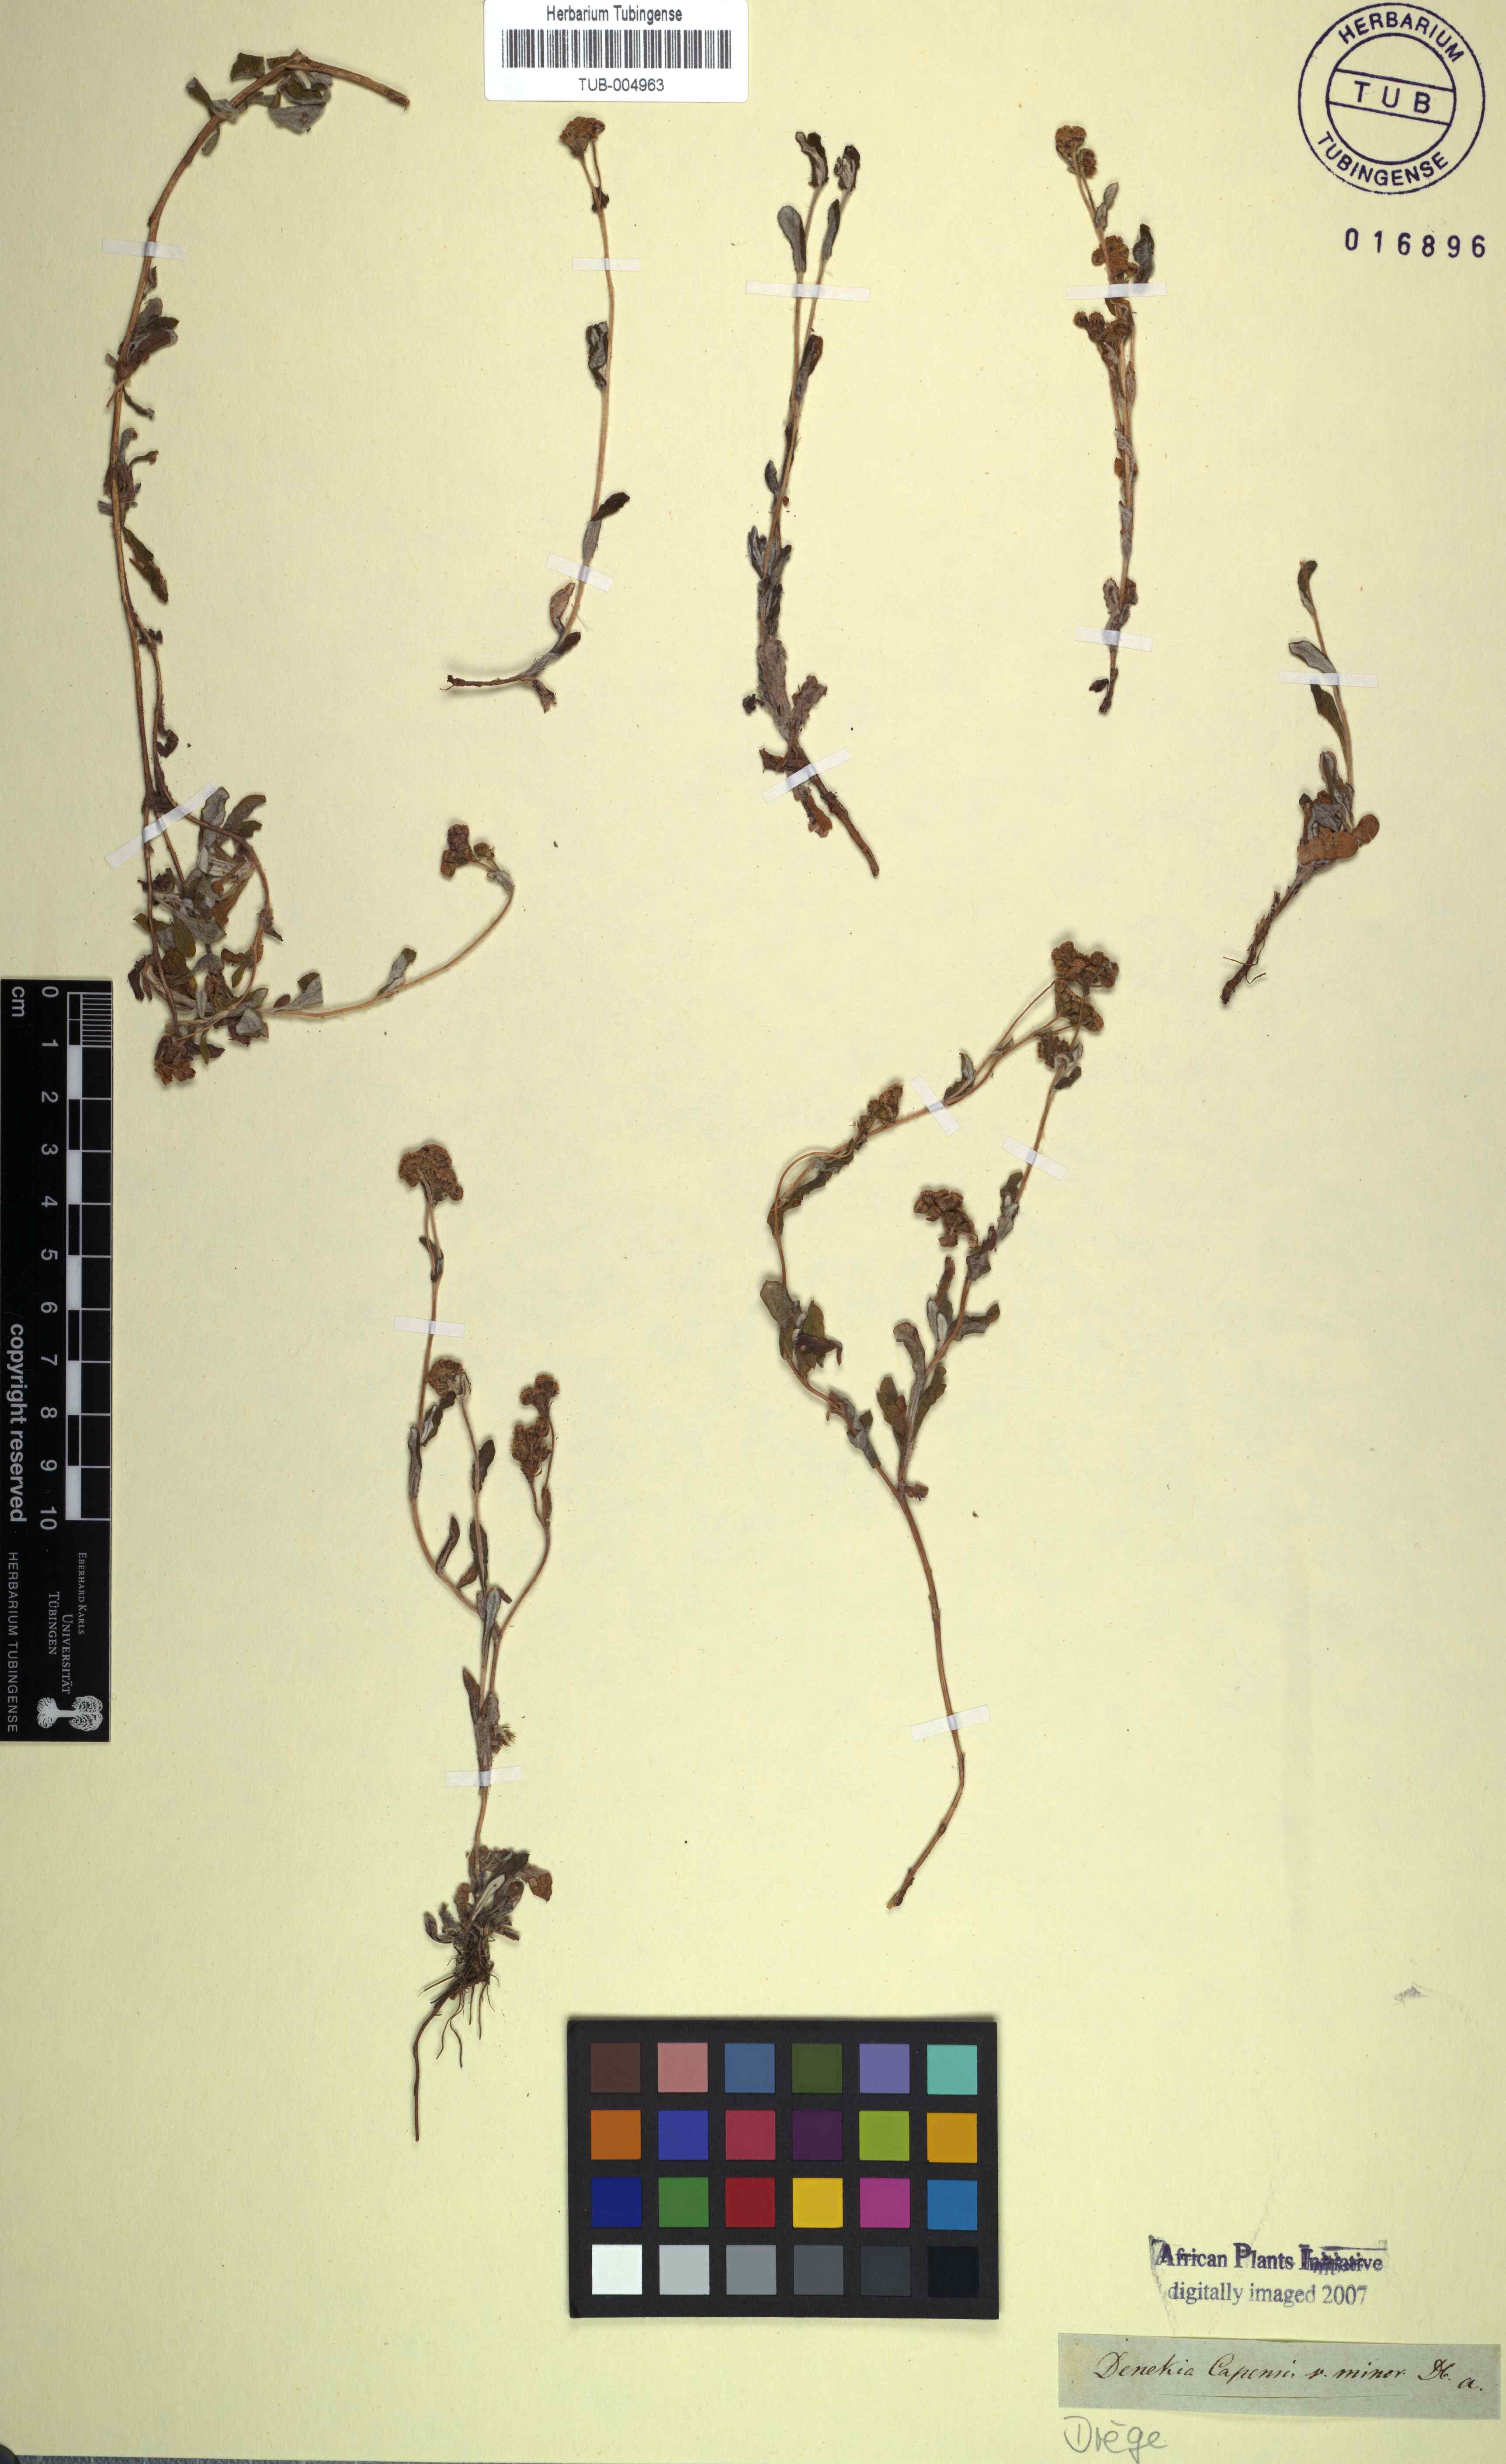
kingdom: Plantae
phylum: Tracheophyta
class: Magnoliopsida
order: Asterales
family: Asteraceae
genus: Denekia
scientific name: Denekia capensis
